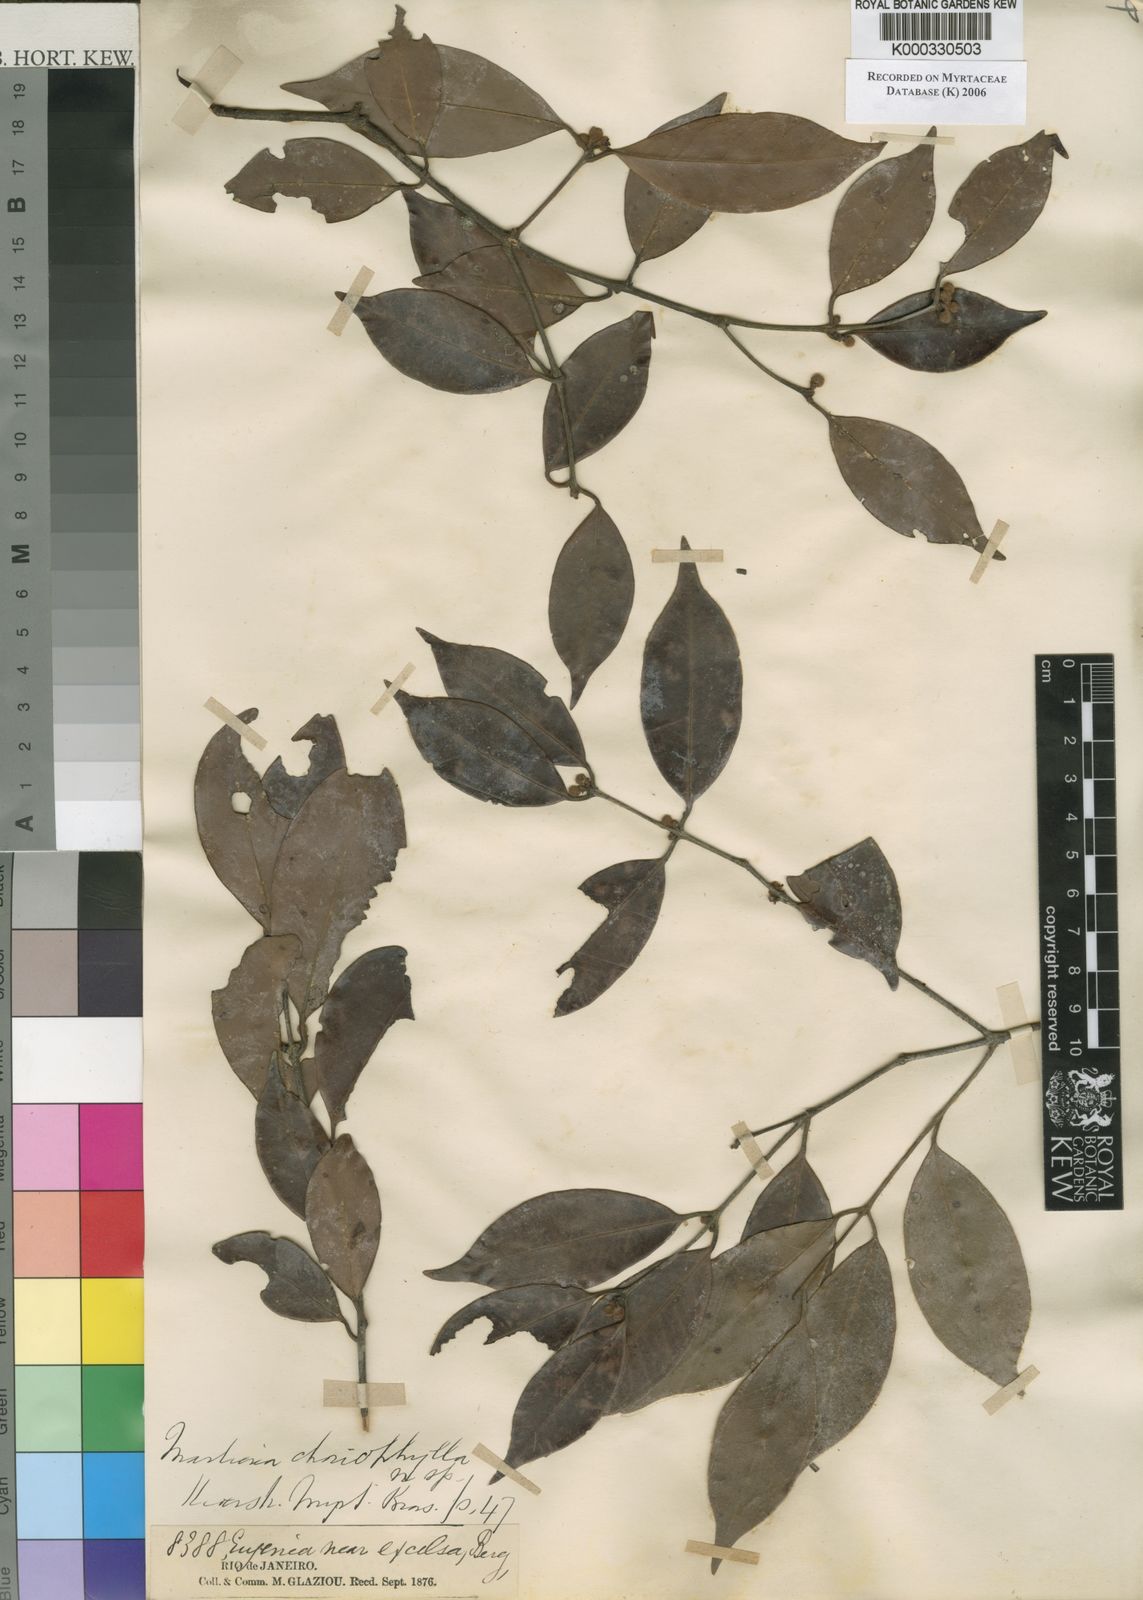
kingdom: Plantae
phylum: Tracheophyta
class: Magnoliopsida
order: Myrtales
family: Myrtaceae
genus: Eugenia
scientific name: Eugenia choriophylla
